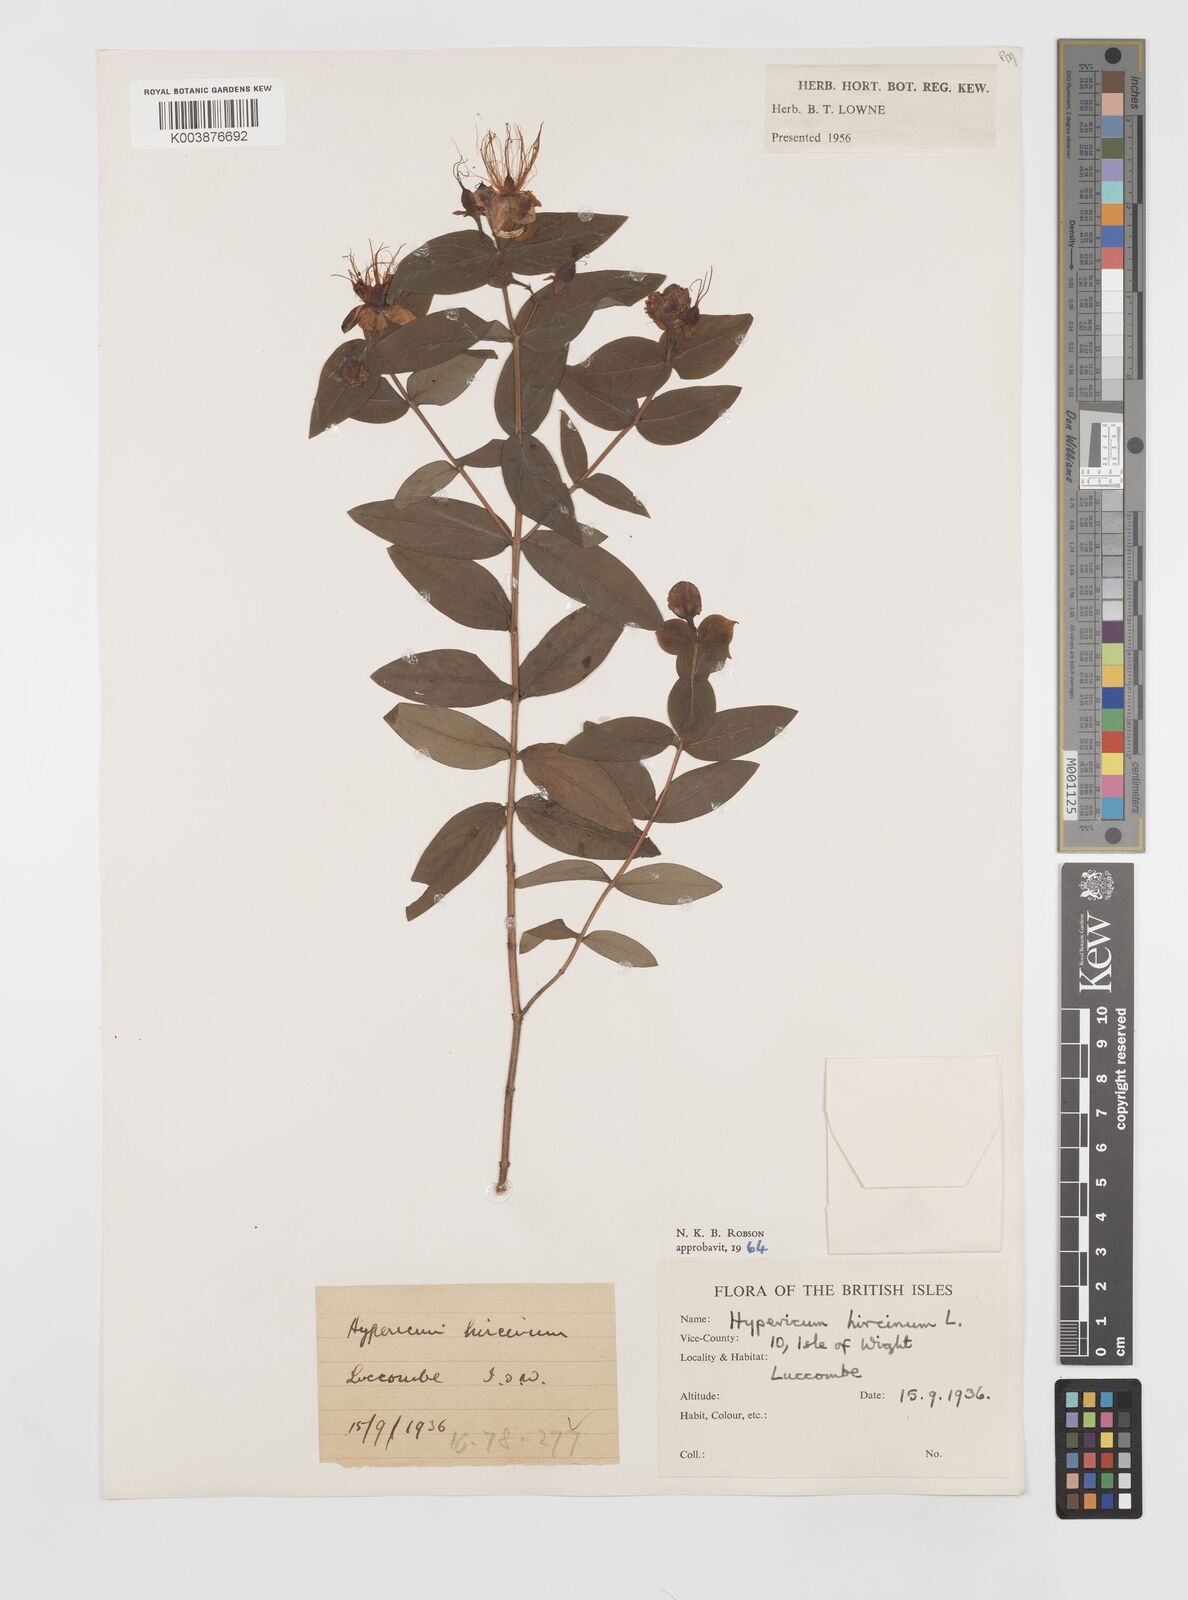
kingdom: Plantae
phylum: Tracheophyta
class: Magnoliopsida
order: Malpighiales
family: Hypericaceae
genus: Hypericum
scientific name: Hypericum hircinum
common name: Stinking tutsan
